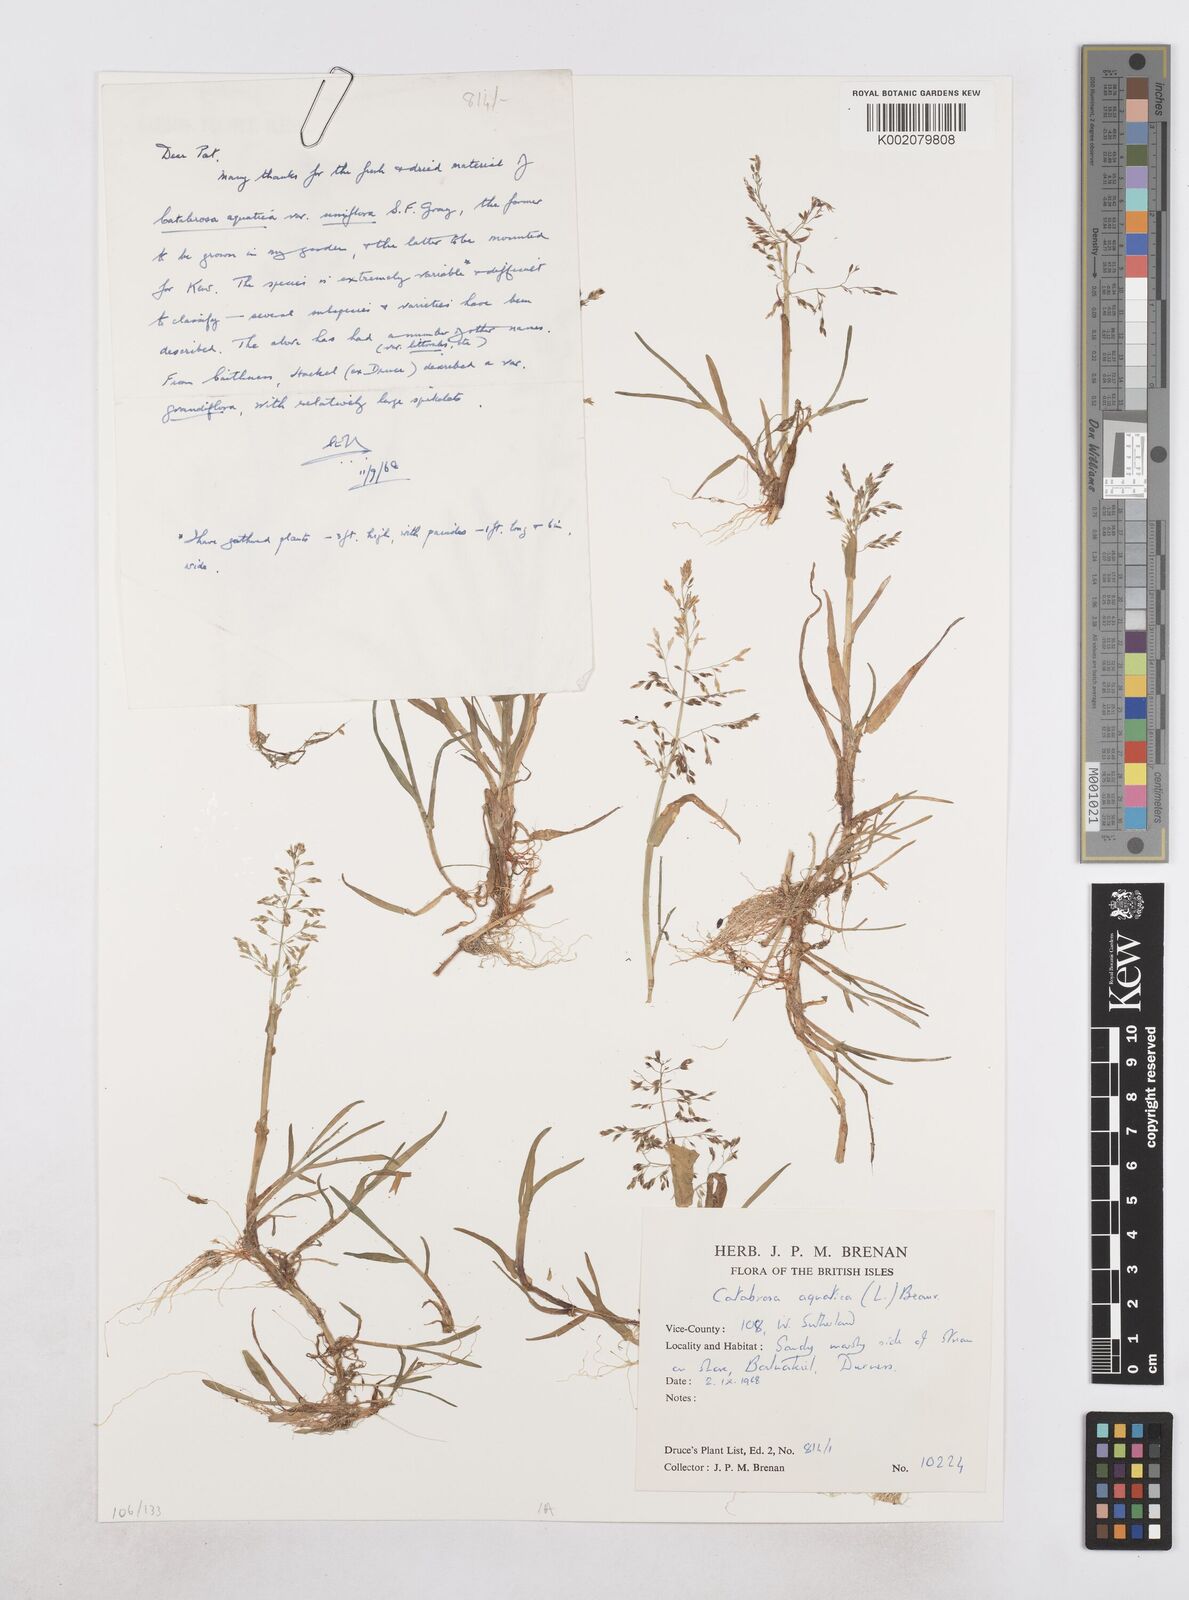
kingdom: Plantae
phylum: Tracheophyta
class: Liliopsida
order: Poales
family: Poaceae
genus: Catabrosa
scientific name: Catabrosa aquatica
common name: Whorl-grass
